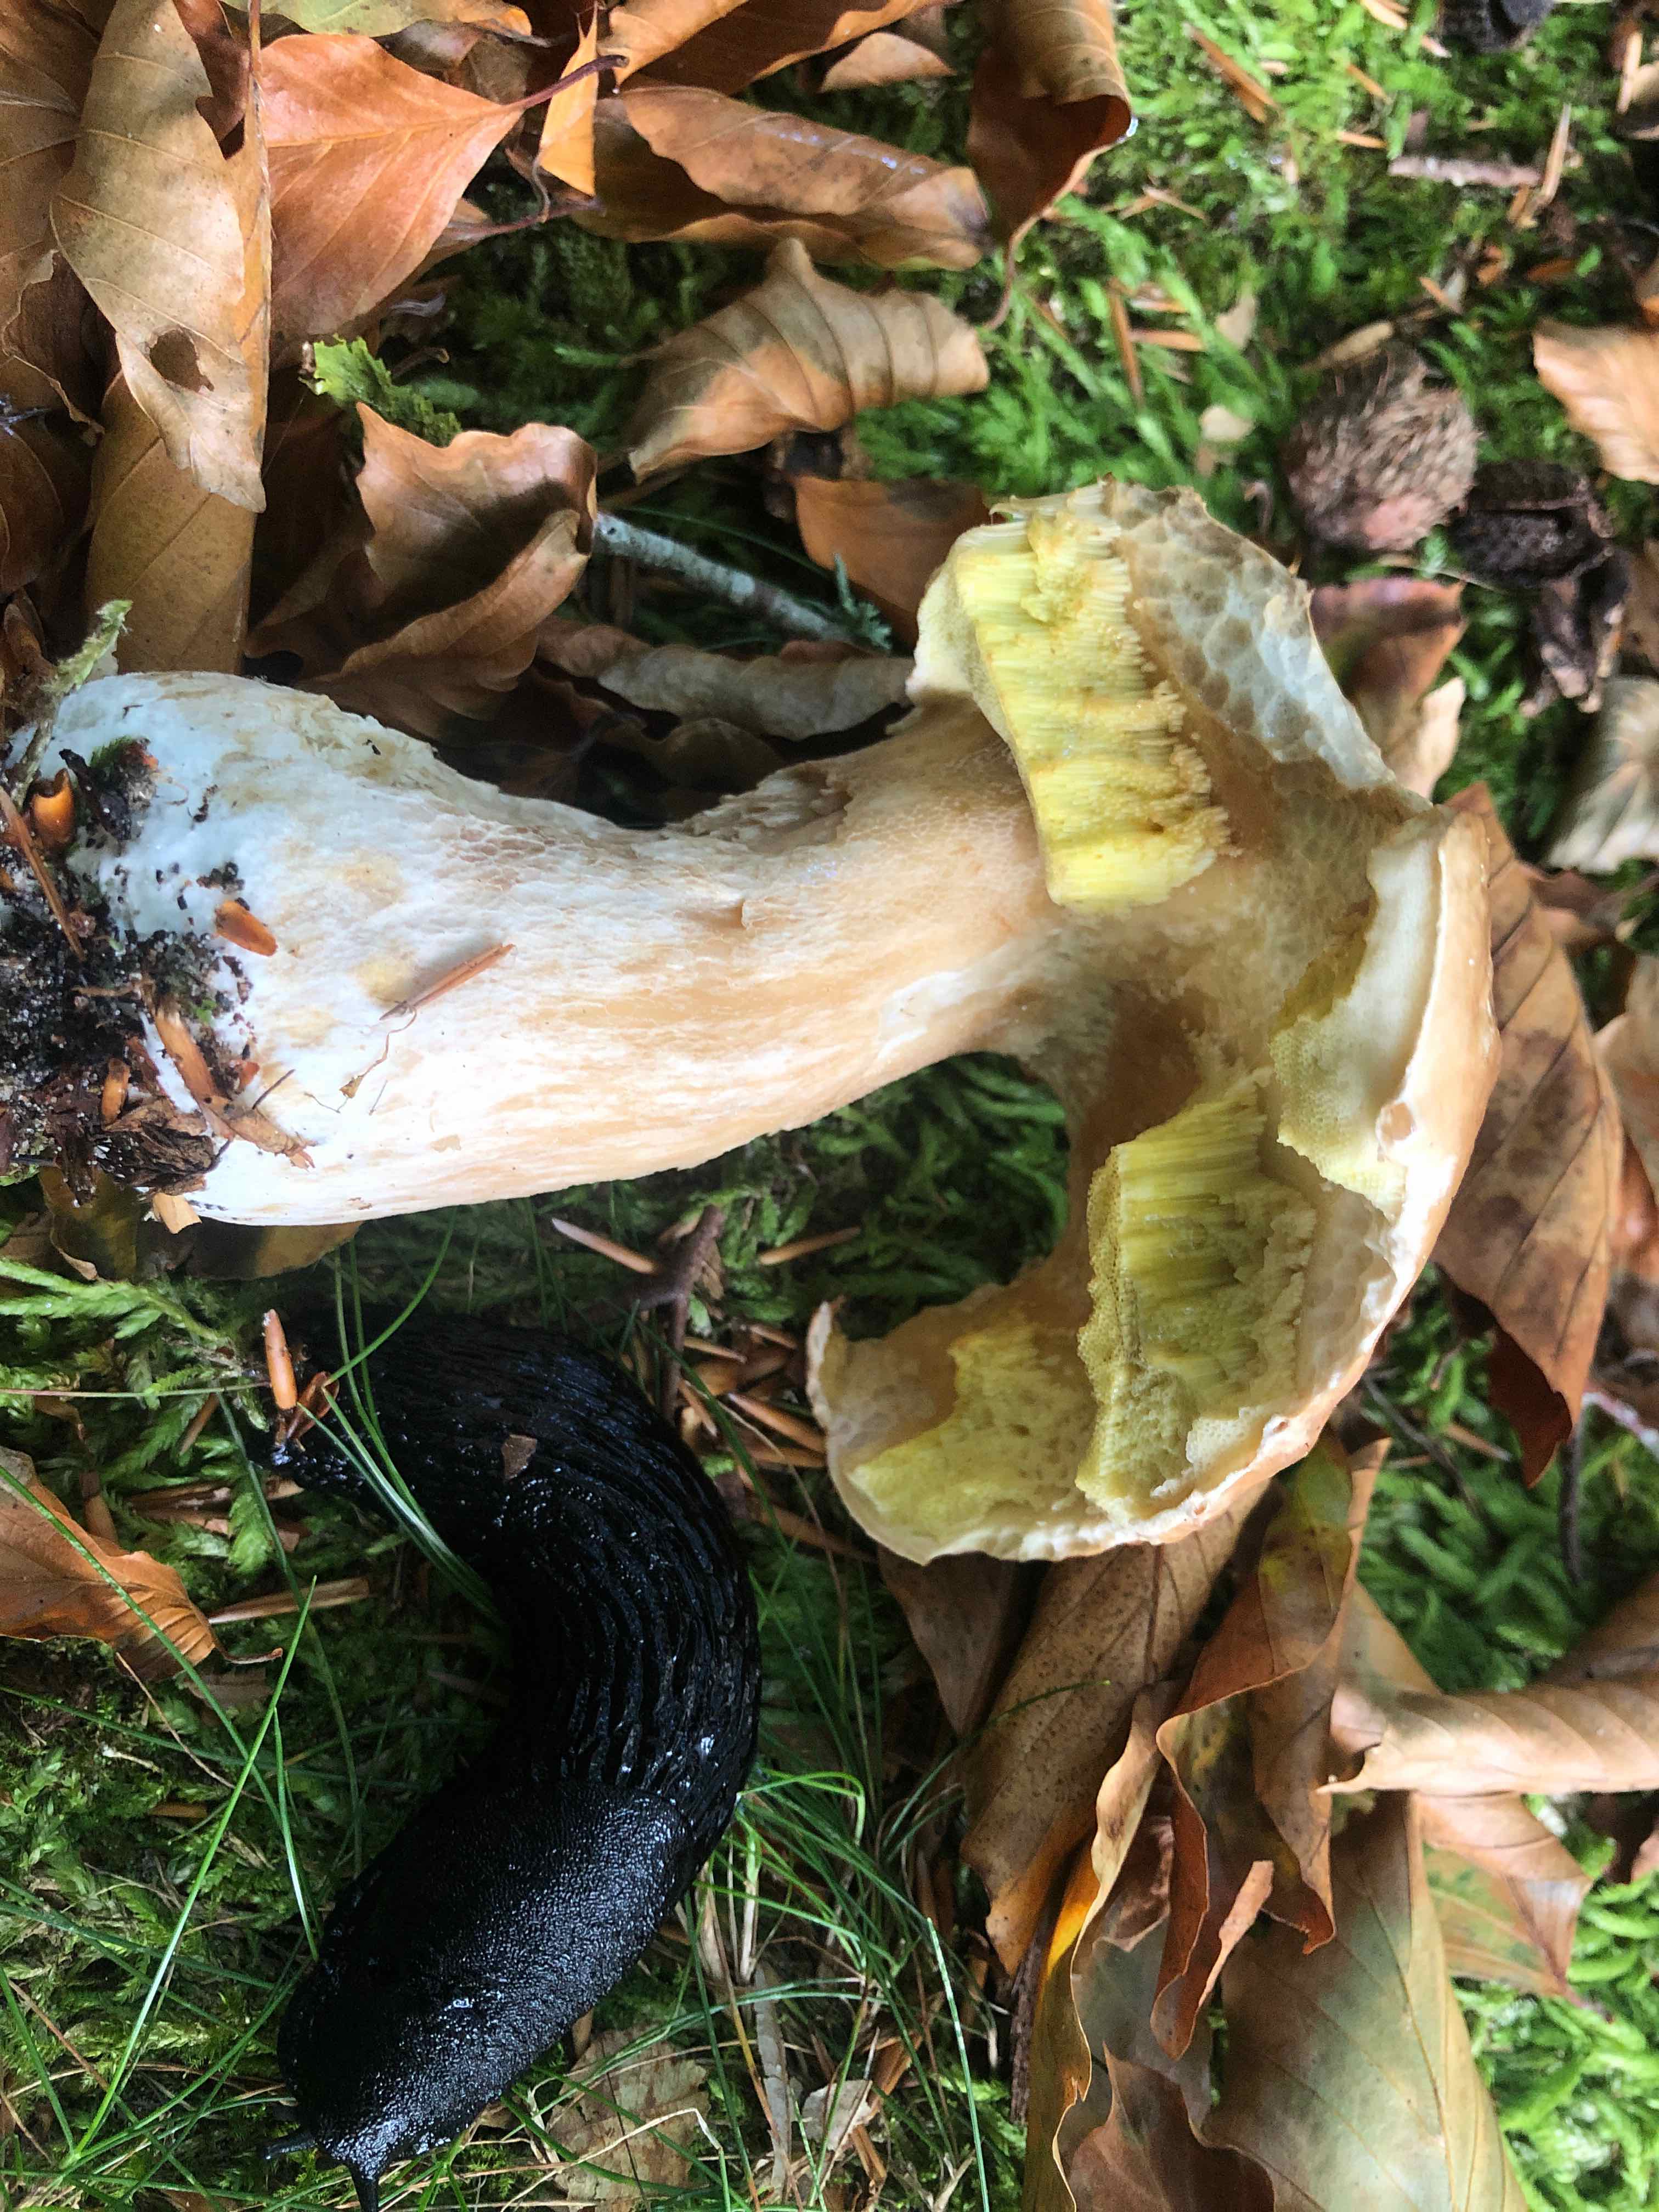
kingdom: Fungi
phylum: Basidiomycota
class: Agaricomycetes
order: Boletales
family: Boletaceae
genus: Boletus
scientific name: Boletus edulis
